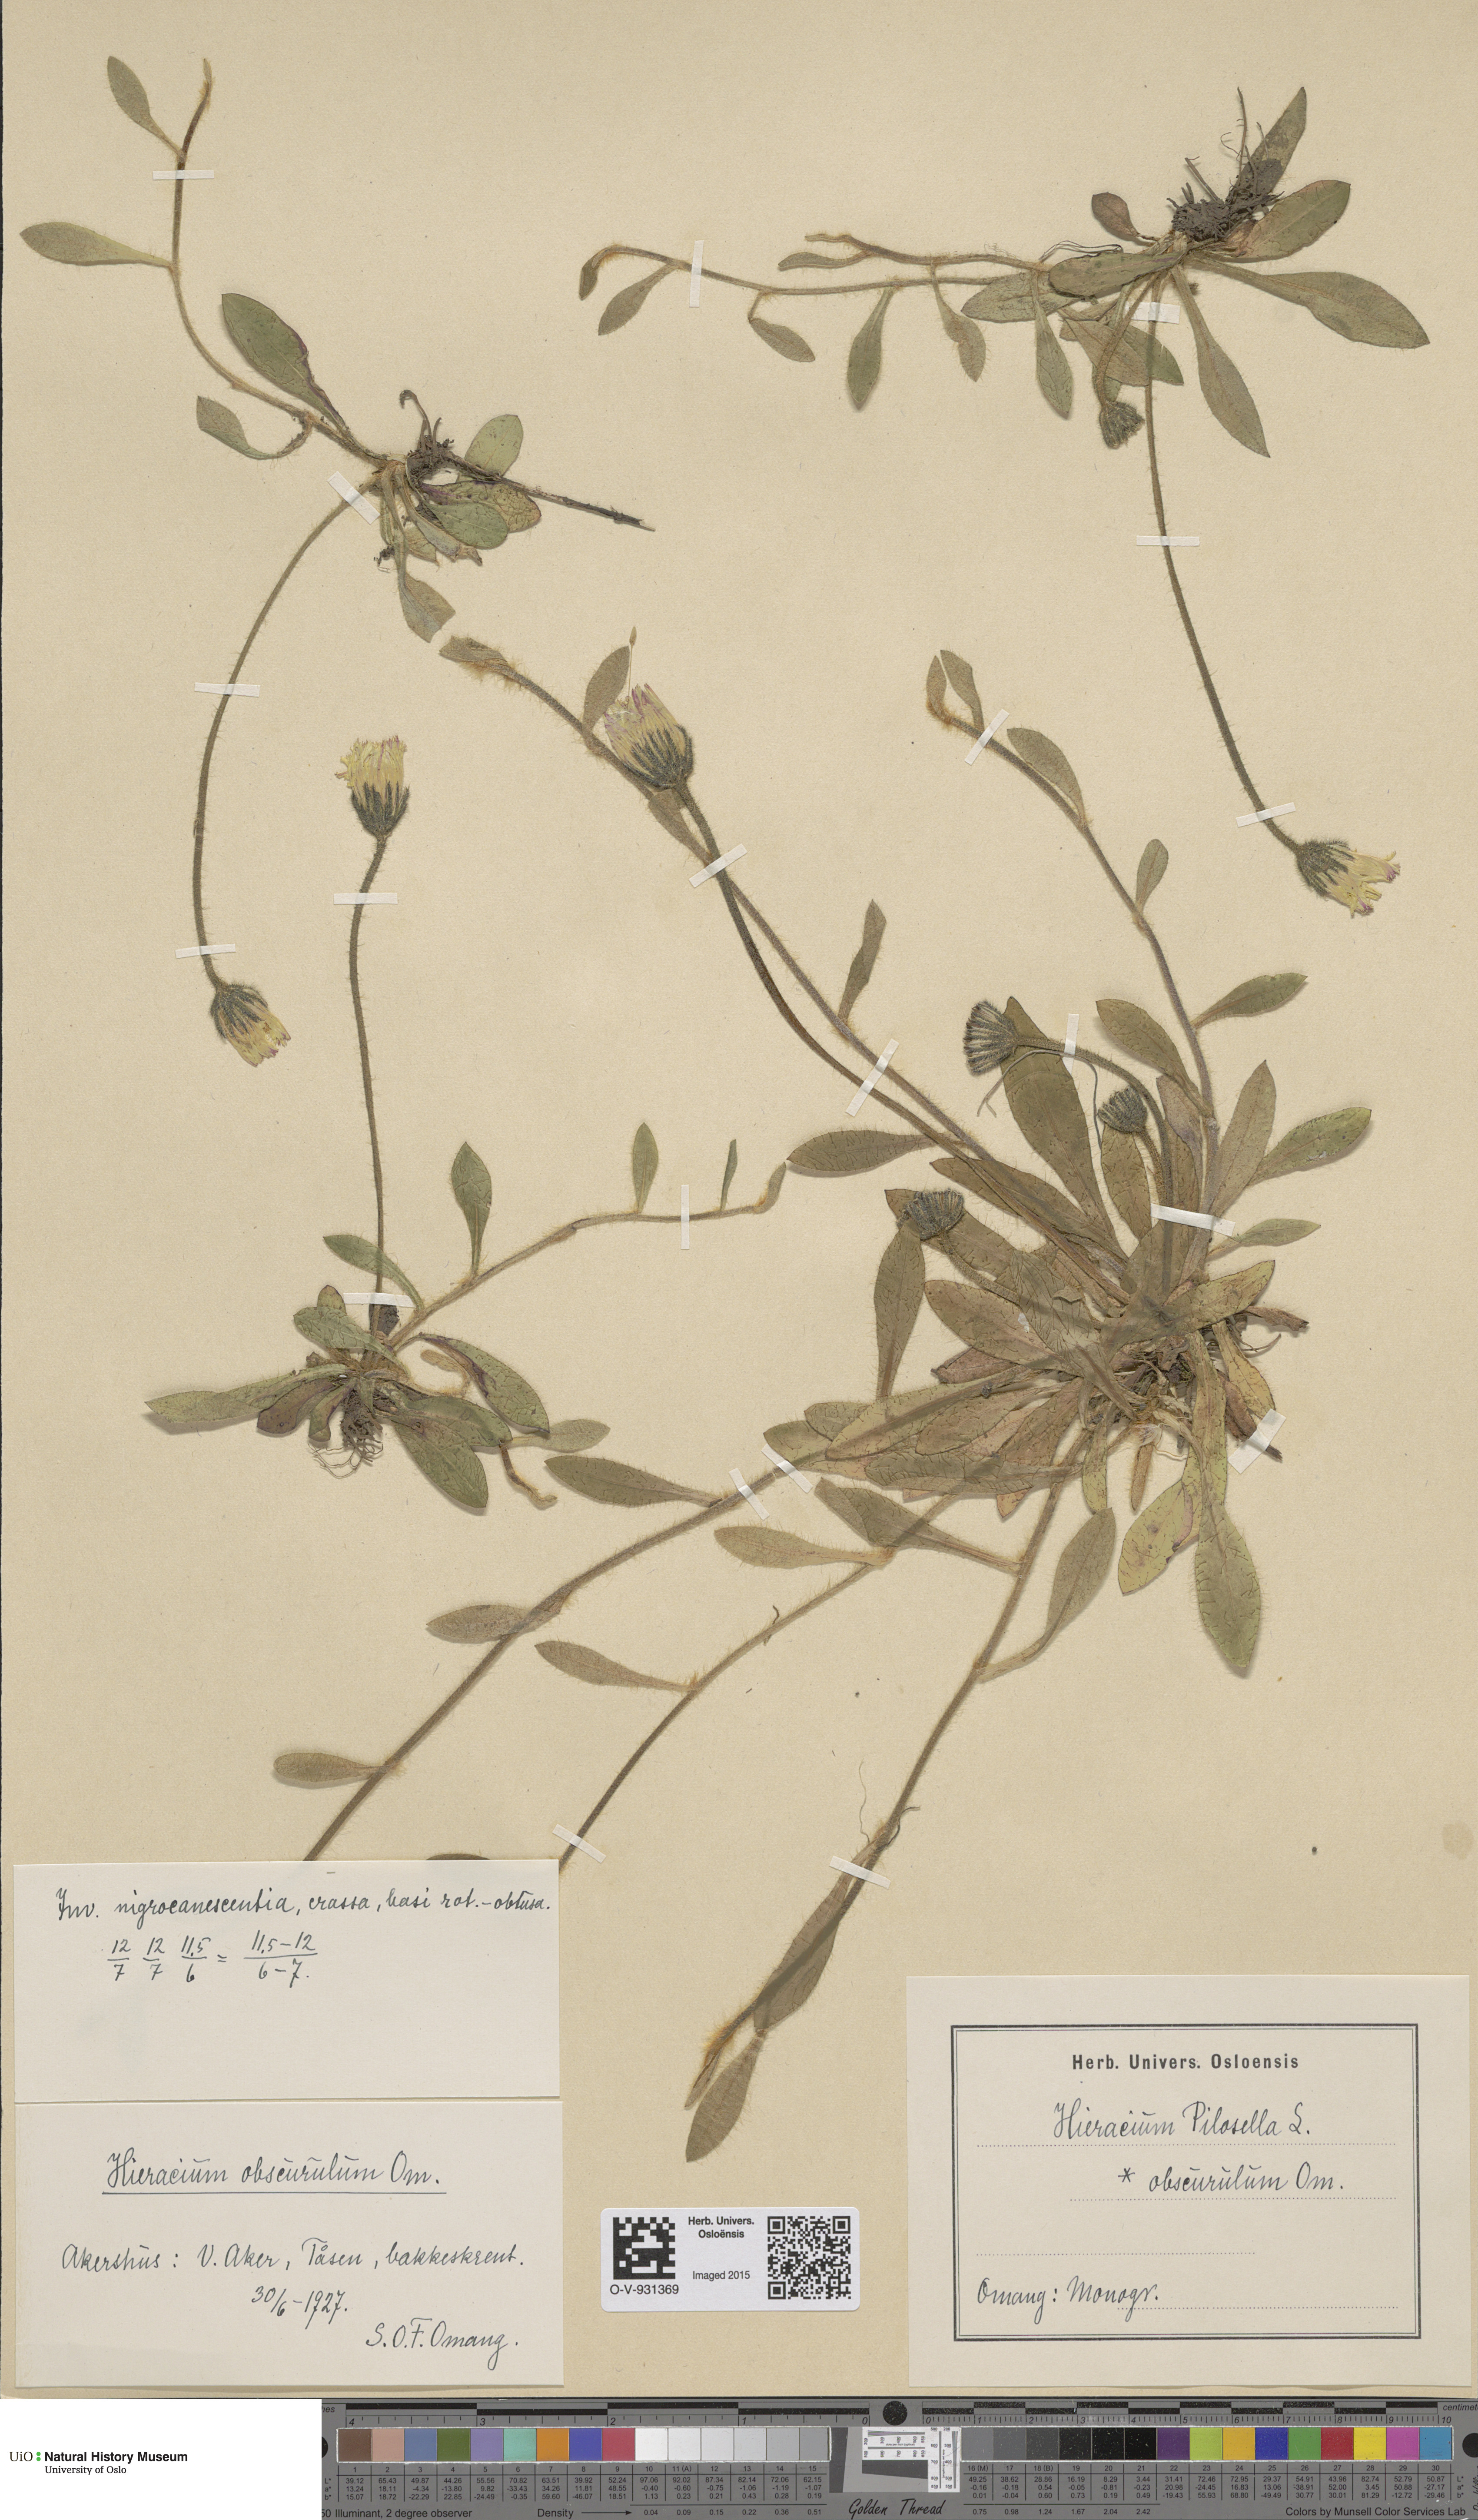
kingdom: Plantae
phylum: Tracheophyta
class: Magnoliopsida
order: Asterales
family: Asteraceae
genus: Pilosella
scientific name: Pilosella officinarum
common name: Mouse-ear hawkweed
